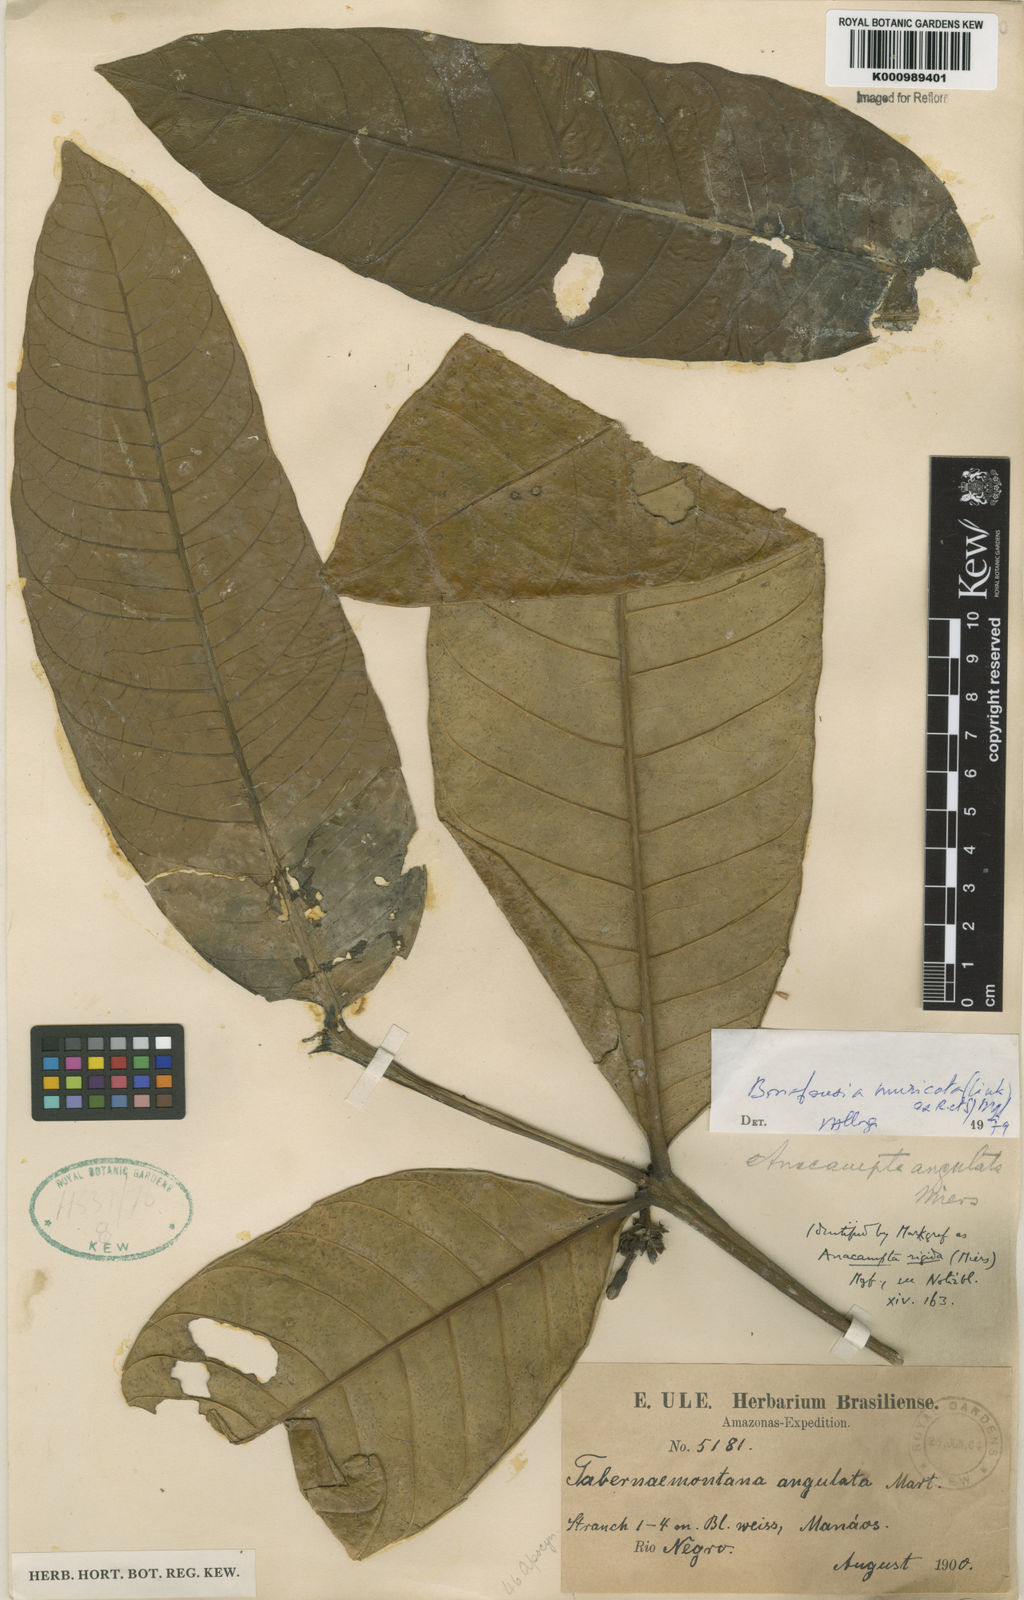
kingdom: Plantae
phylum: Tracheophyta
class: Magnoliopsida
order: Gentianales
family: Apocynaceae
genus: Tabernaemontana
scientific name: Tabernaemontana muricata
